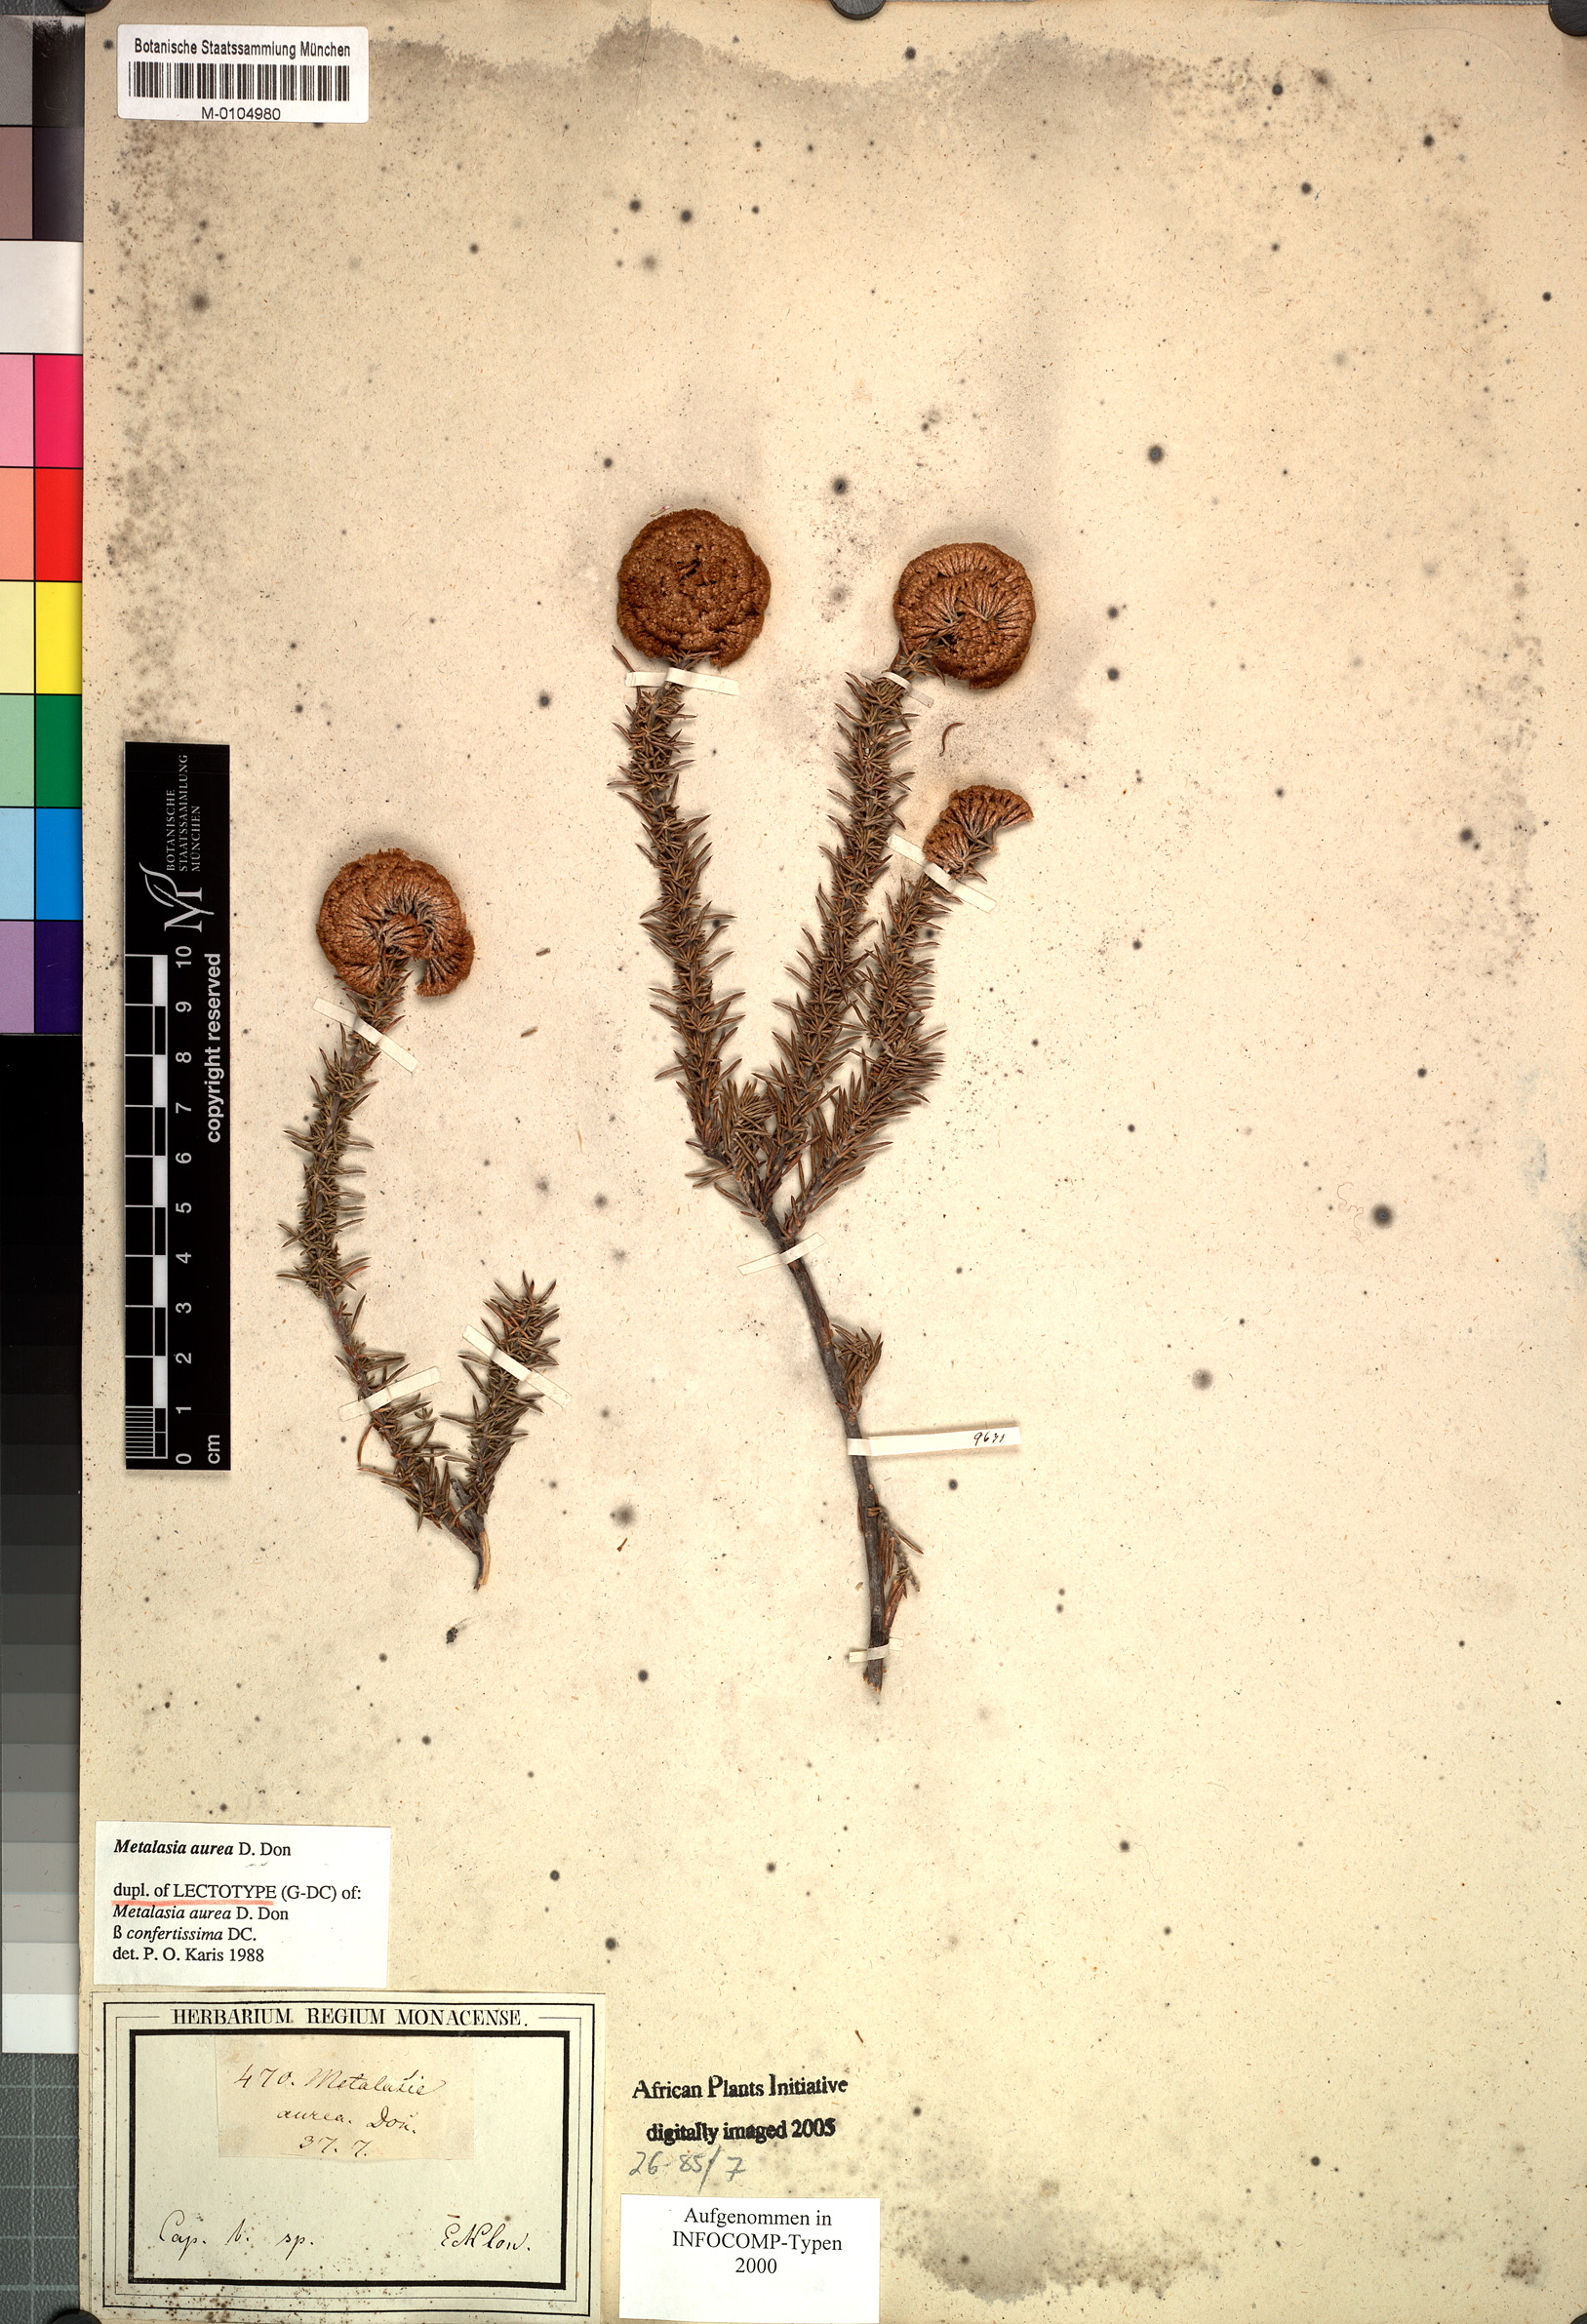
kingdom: Plantae
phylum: Tracheophyta
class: Magnoliopsida
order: Asterales
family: Asteraceae
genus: Metalasia
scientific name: Metalasia aurea
